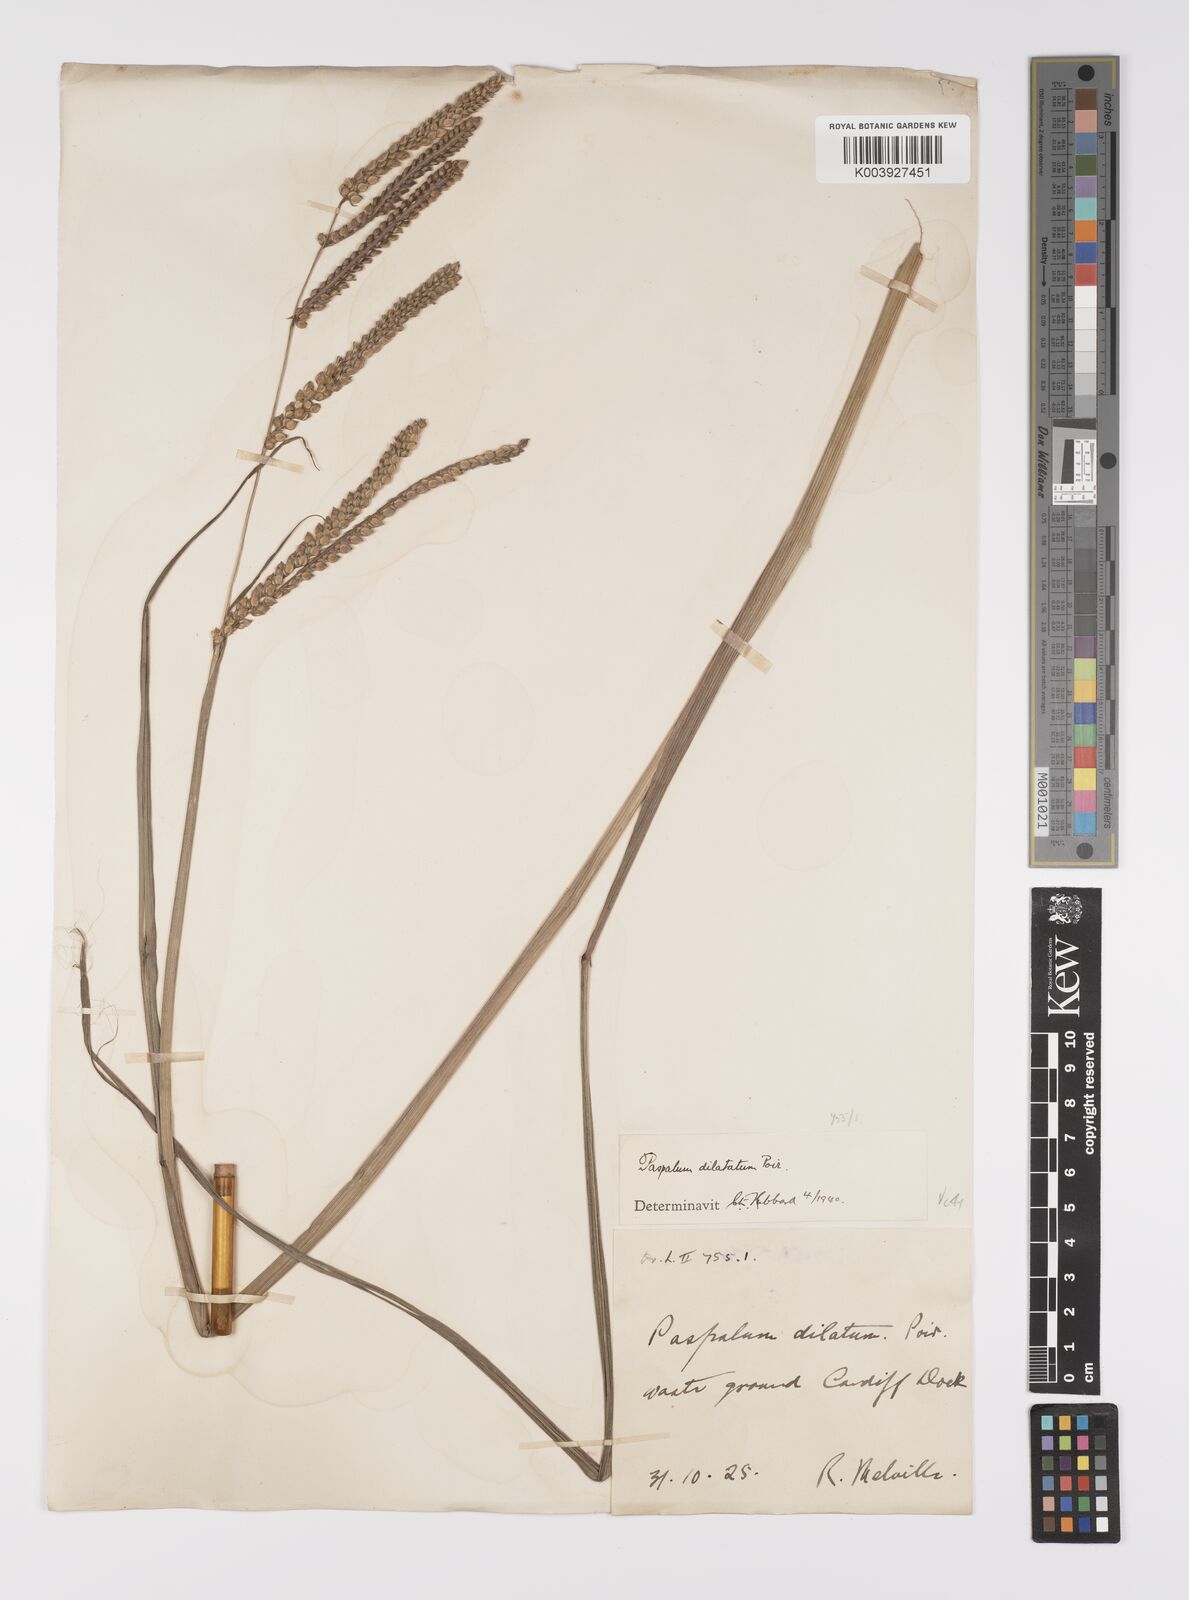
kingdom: Plantae
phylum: Tracheophyta
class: Liliopsida
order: Poales
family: Poaceae
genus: Paspalum
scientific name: Paspalum dilatatum
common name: Dallisgrass
